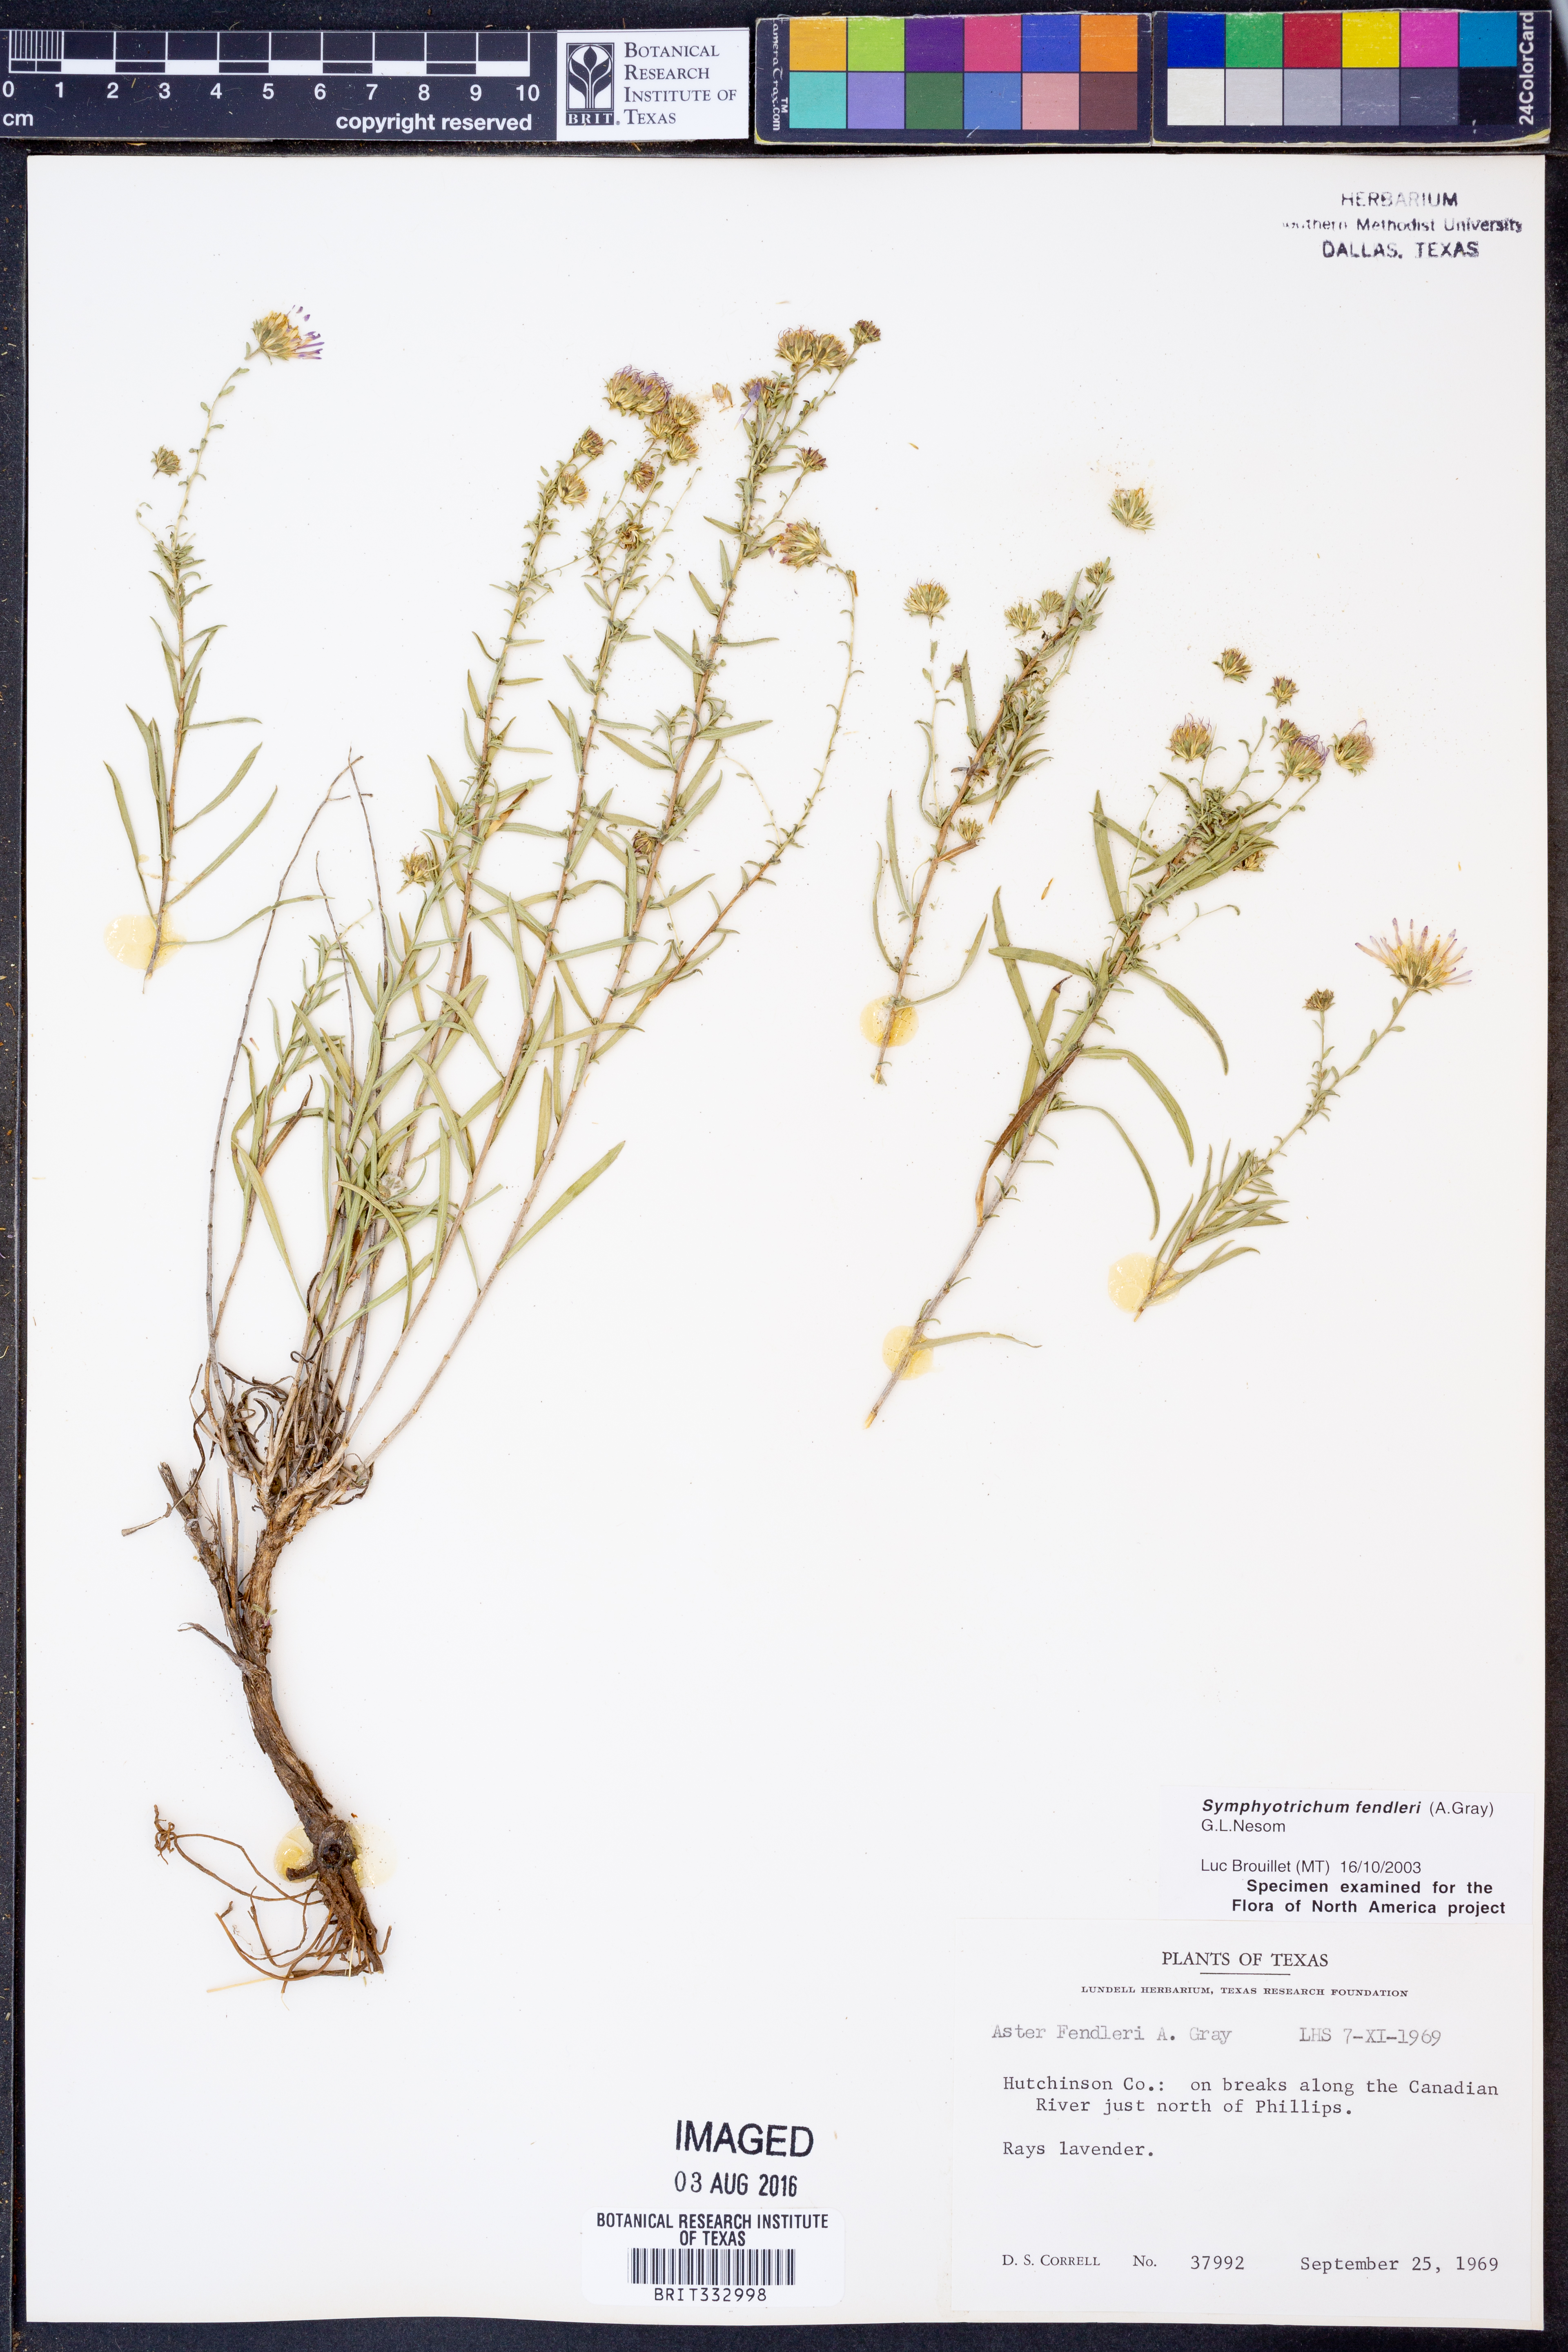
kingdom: Plantae
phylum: Tracheophyta
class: Magnoliopsida
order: Asterales
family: Asteraceae
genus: Symphyotrichum
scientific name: Symphyotrichum fendleri
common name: Fendler's aster
